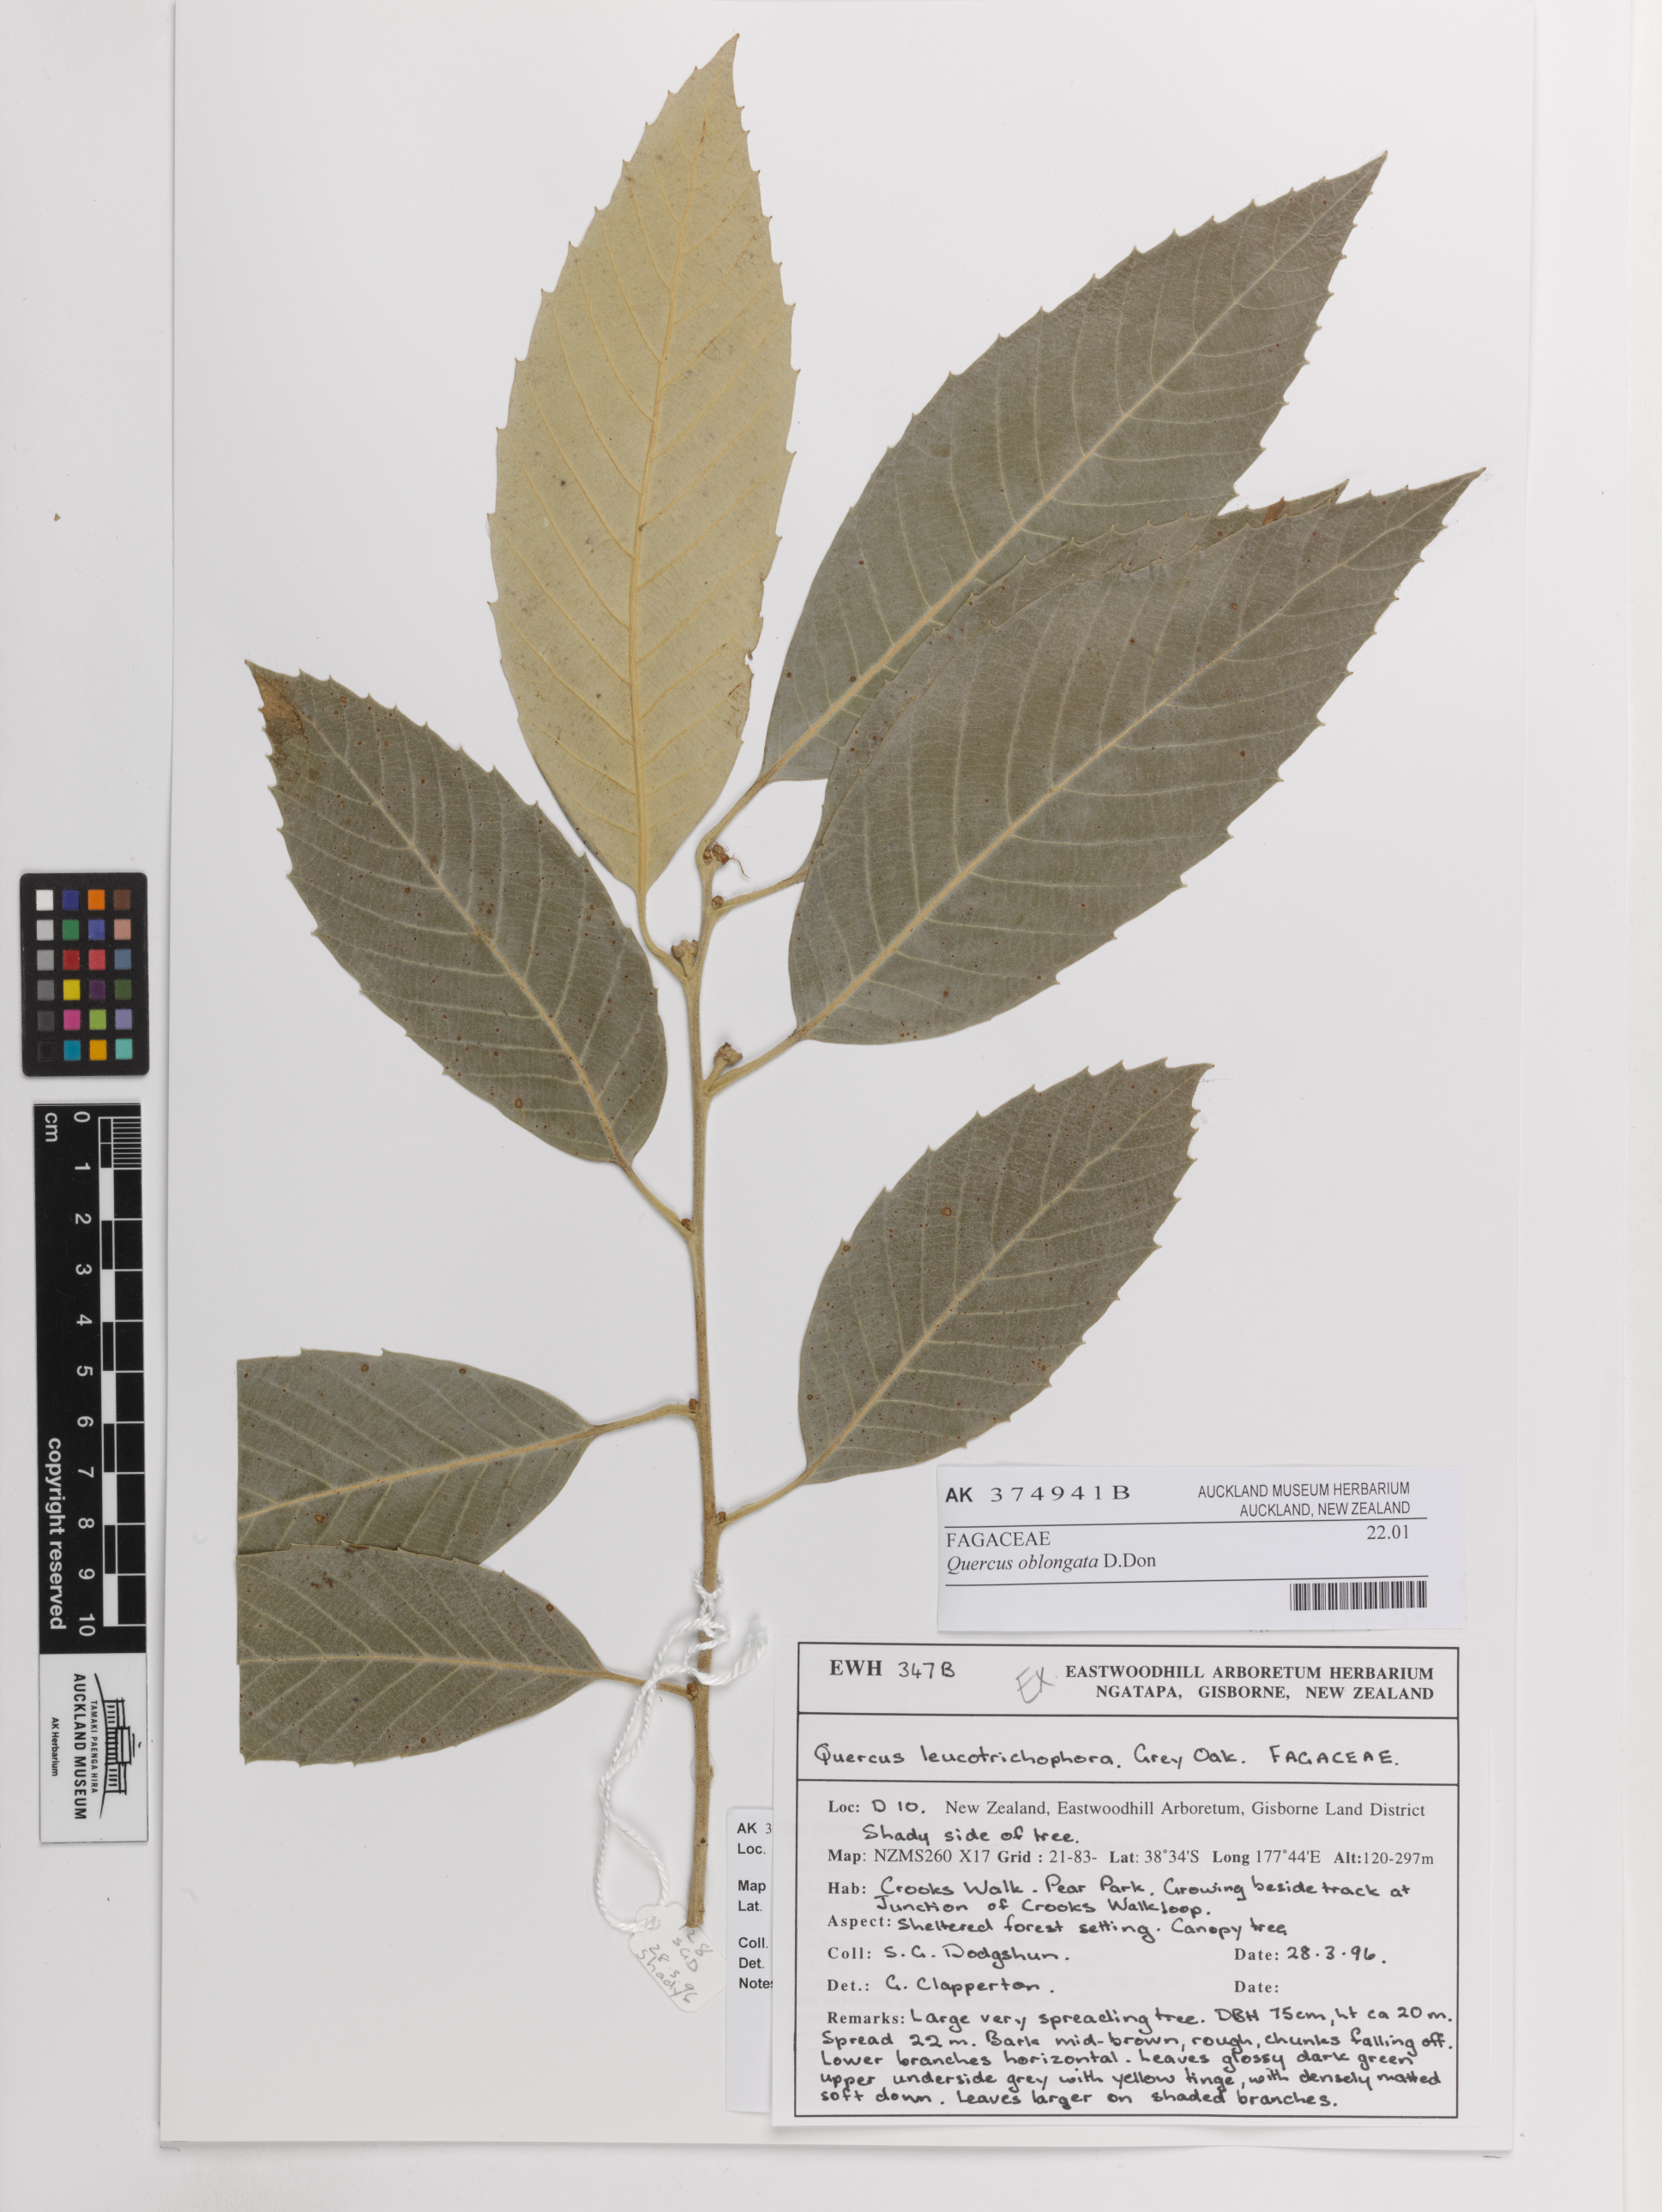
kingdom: Plantae
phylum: Tracheophyta
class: Magnoliopsida
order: Fagales
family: Fagaceae
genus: Quercus
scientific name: Quercus lanata
